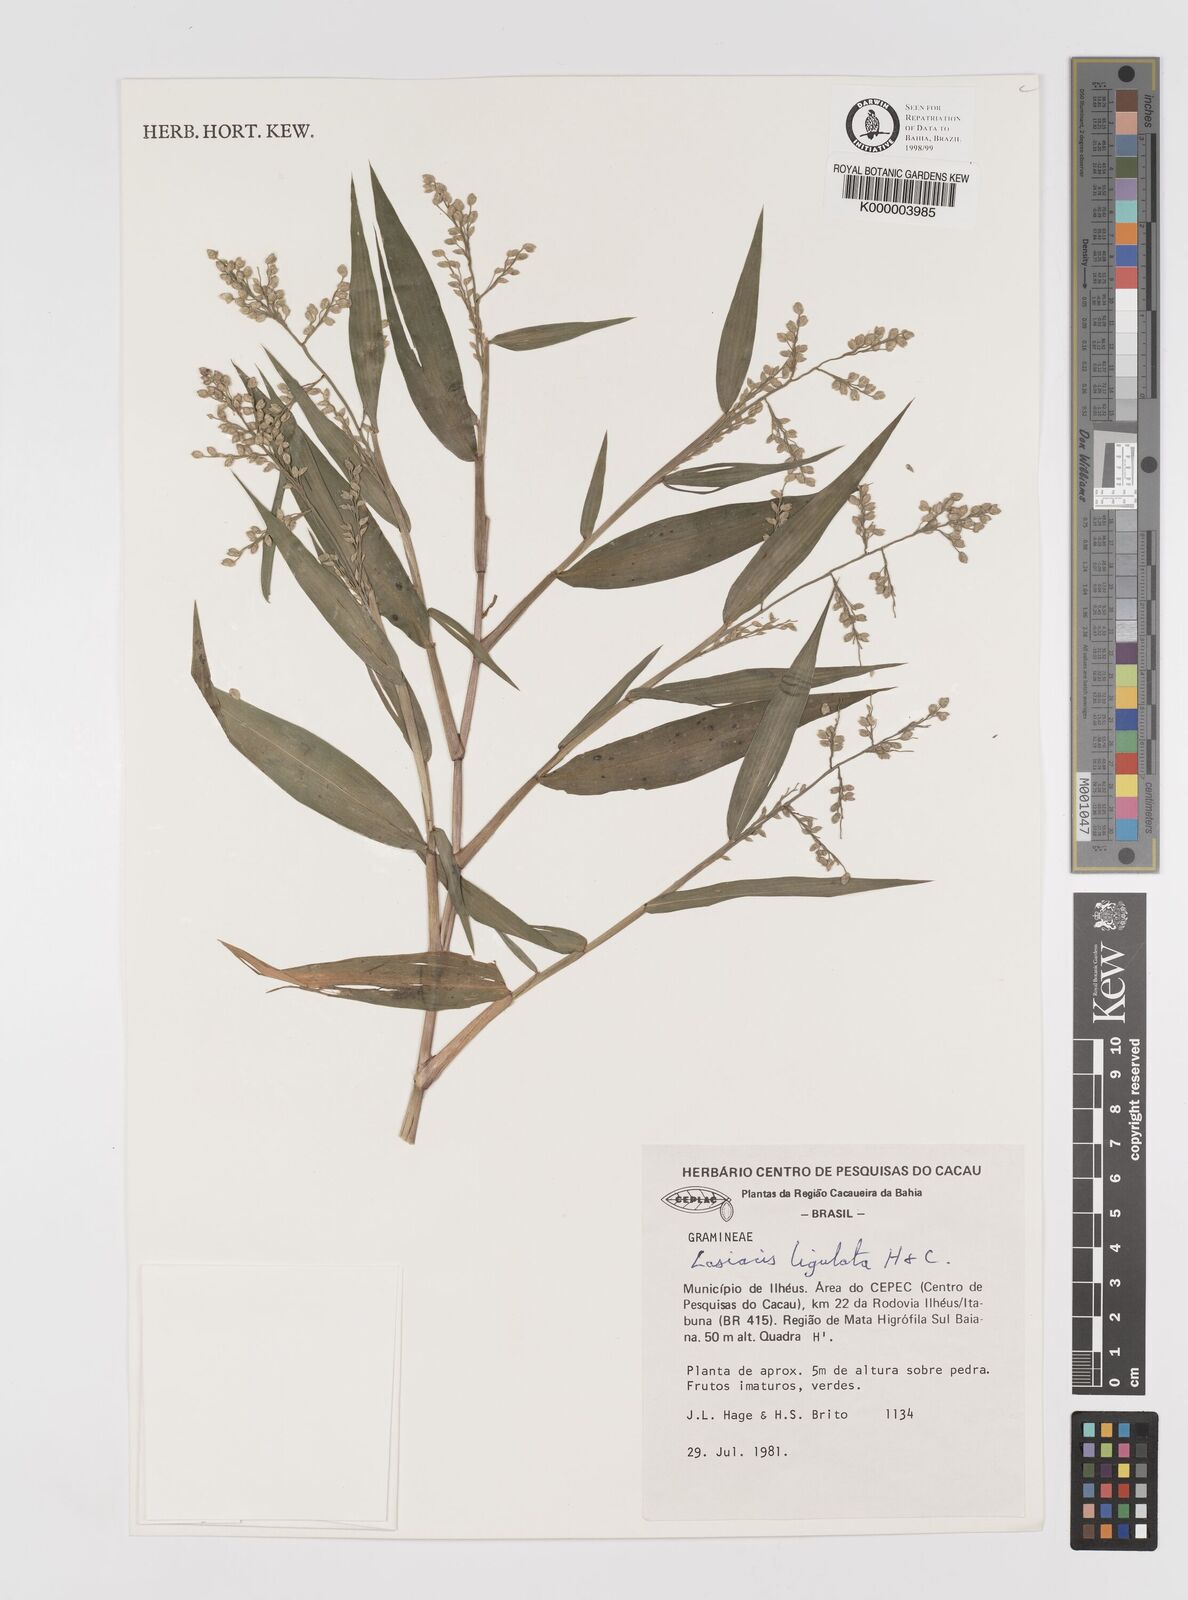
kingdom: Plantae
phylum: Tracheophyta
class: Liliopsida
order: Poales
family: Poaceae
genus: Lasiacis
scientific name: Lasiacis ligulata
